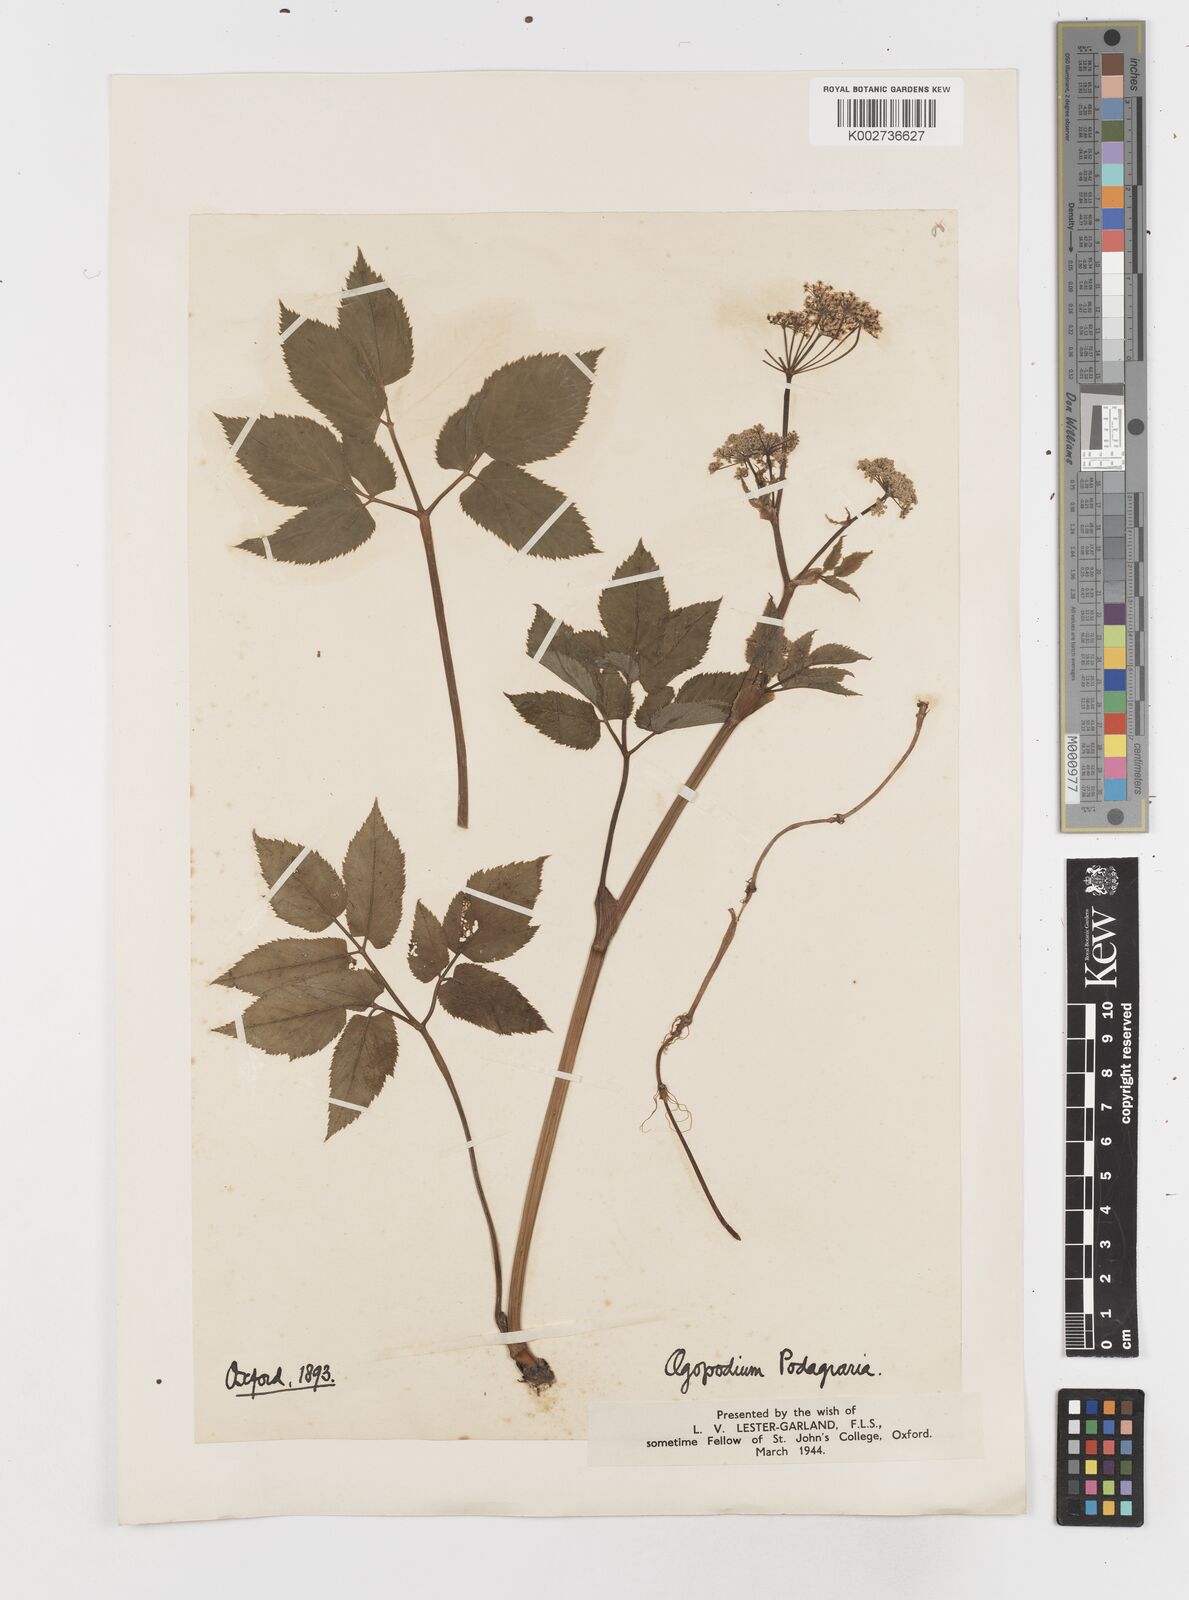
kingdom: Plantae
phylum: Tracheophyta
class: Magnoliopsida
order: Apiales
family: Apiaceae
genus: Aegopodium
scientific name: Aegopodium podagraria
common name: Ground-elder
